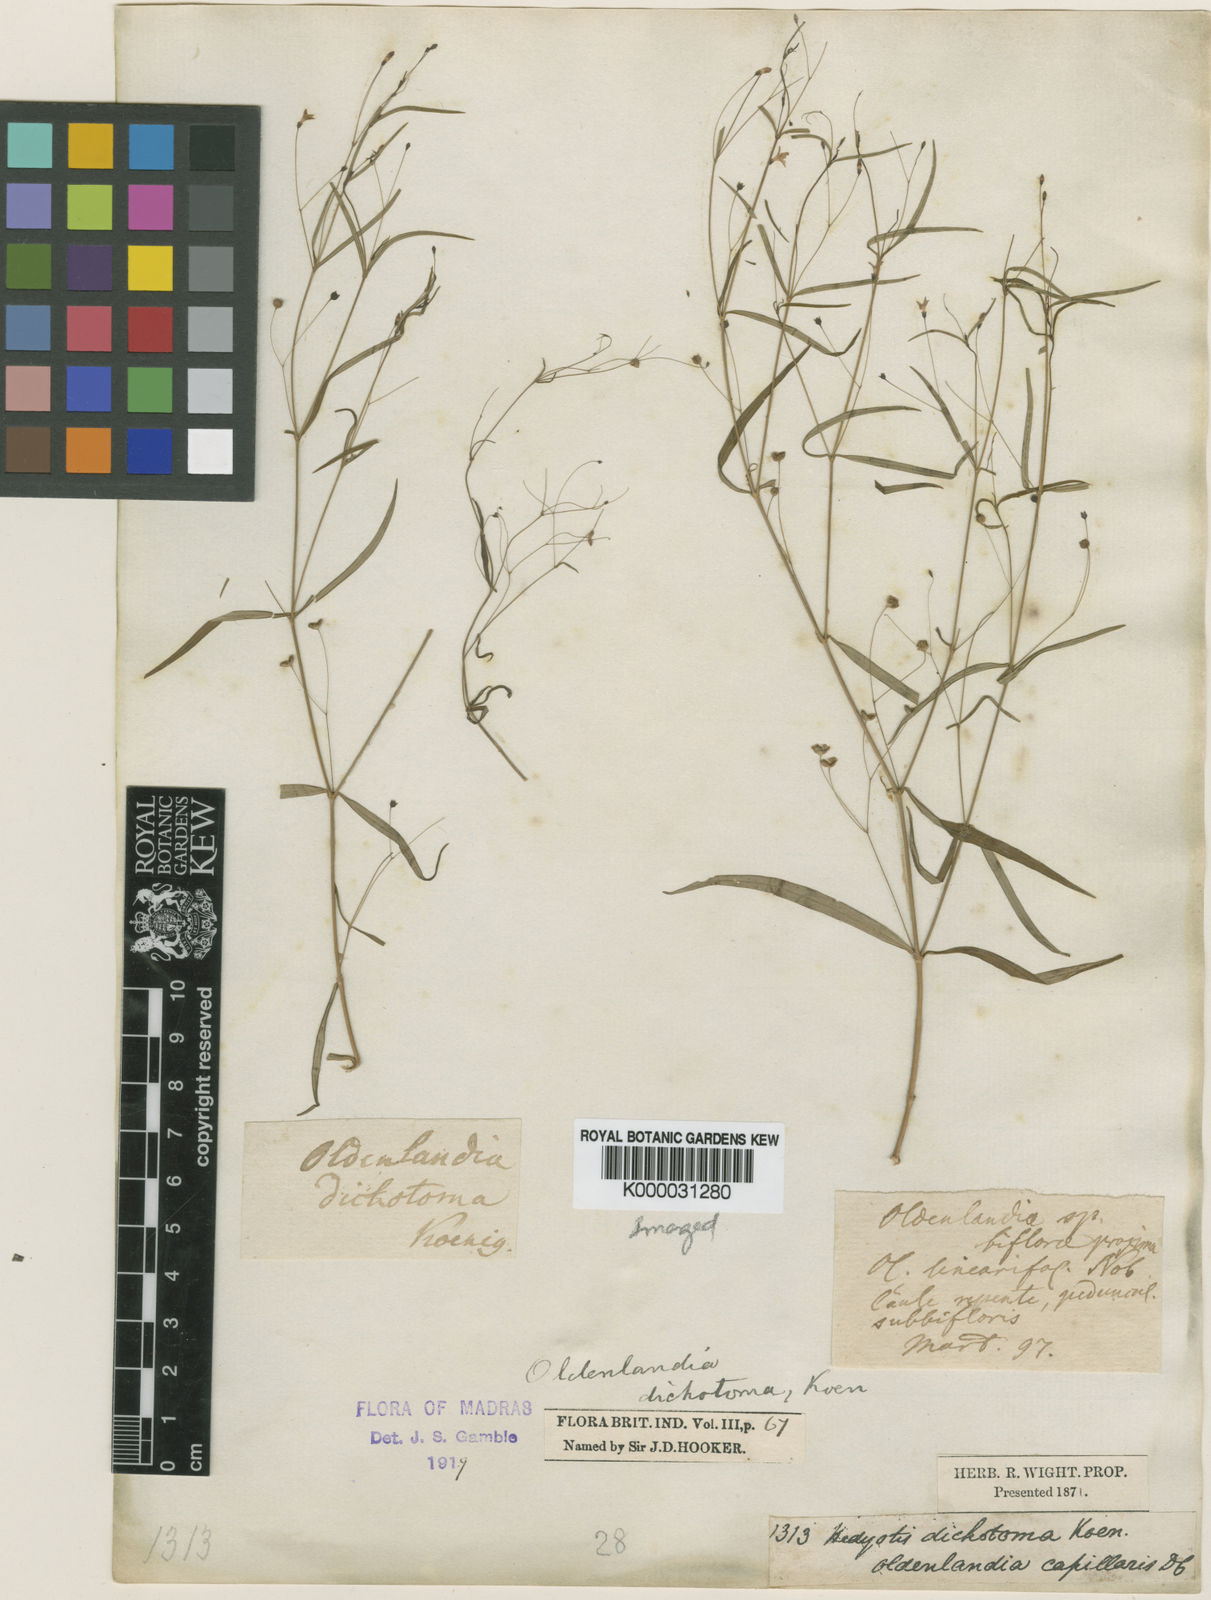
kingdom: Plantae
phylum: Tracheophyta
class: Magnoliopsida
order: Gentianales
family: Rubiaceae
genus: Oldenlandia
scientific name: Oldenlandia affinis
